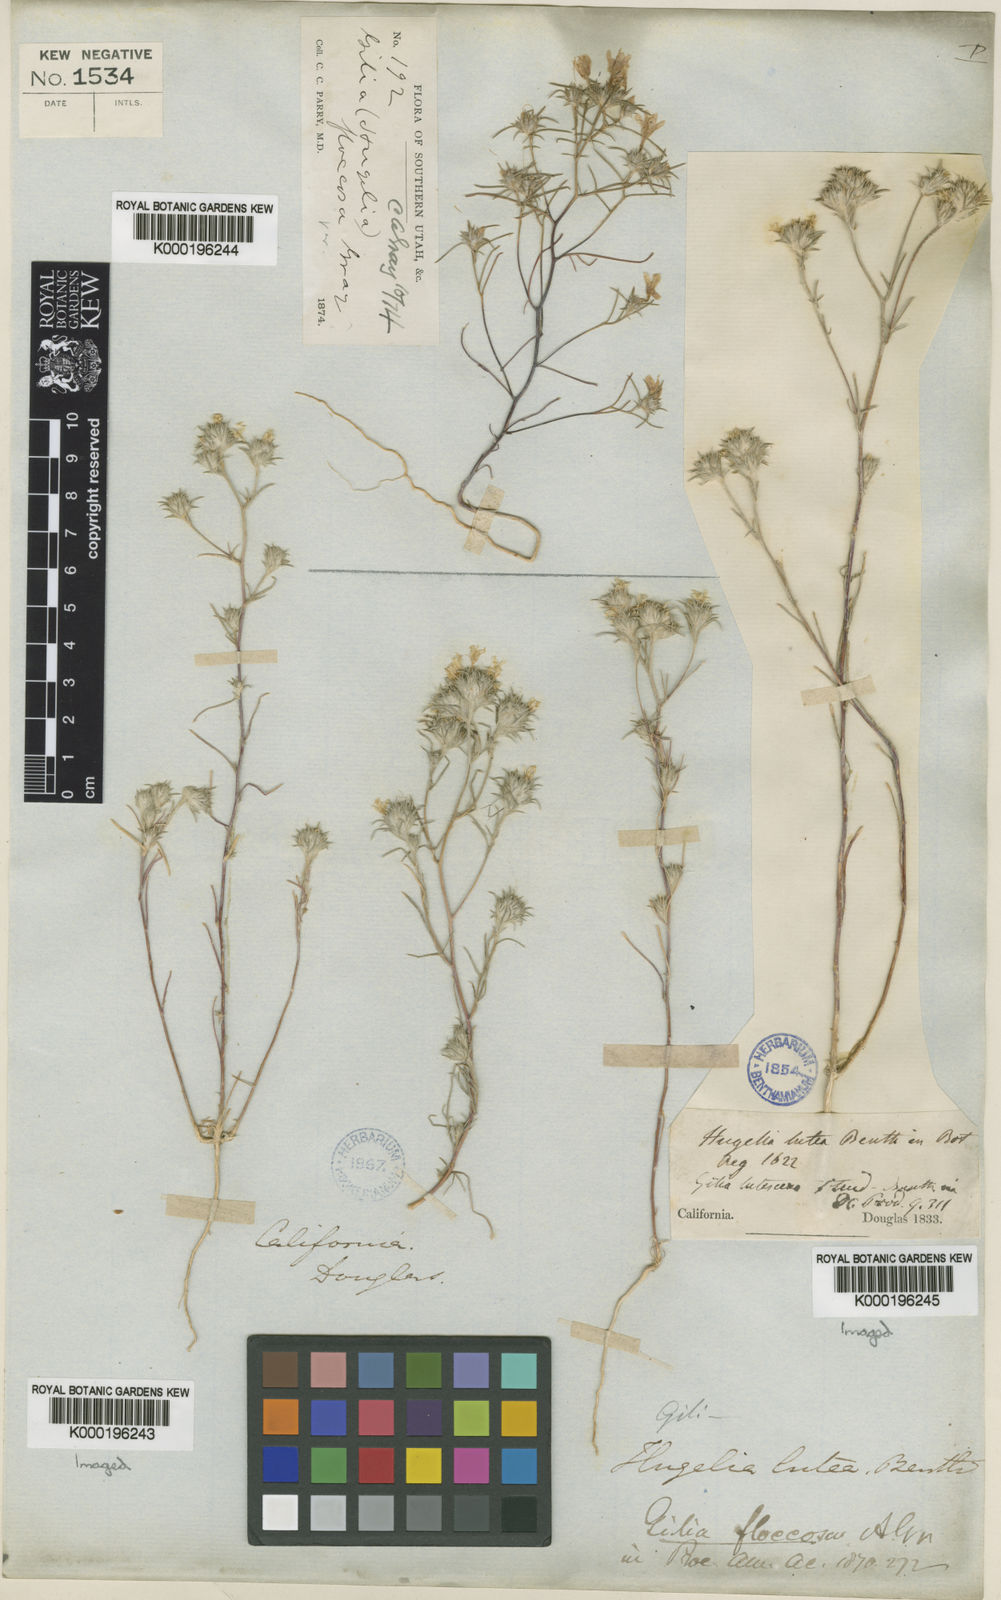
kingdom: Plantae
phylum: Tracheophyta
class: Magnoliopsida
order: Ericales
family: Polemoniaceae
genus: Eriastrum
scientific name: Eriastrum luteum
